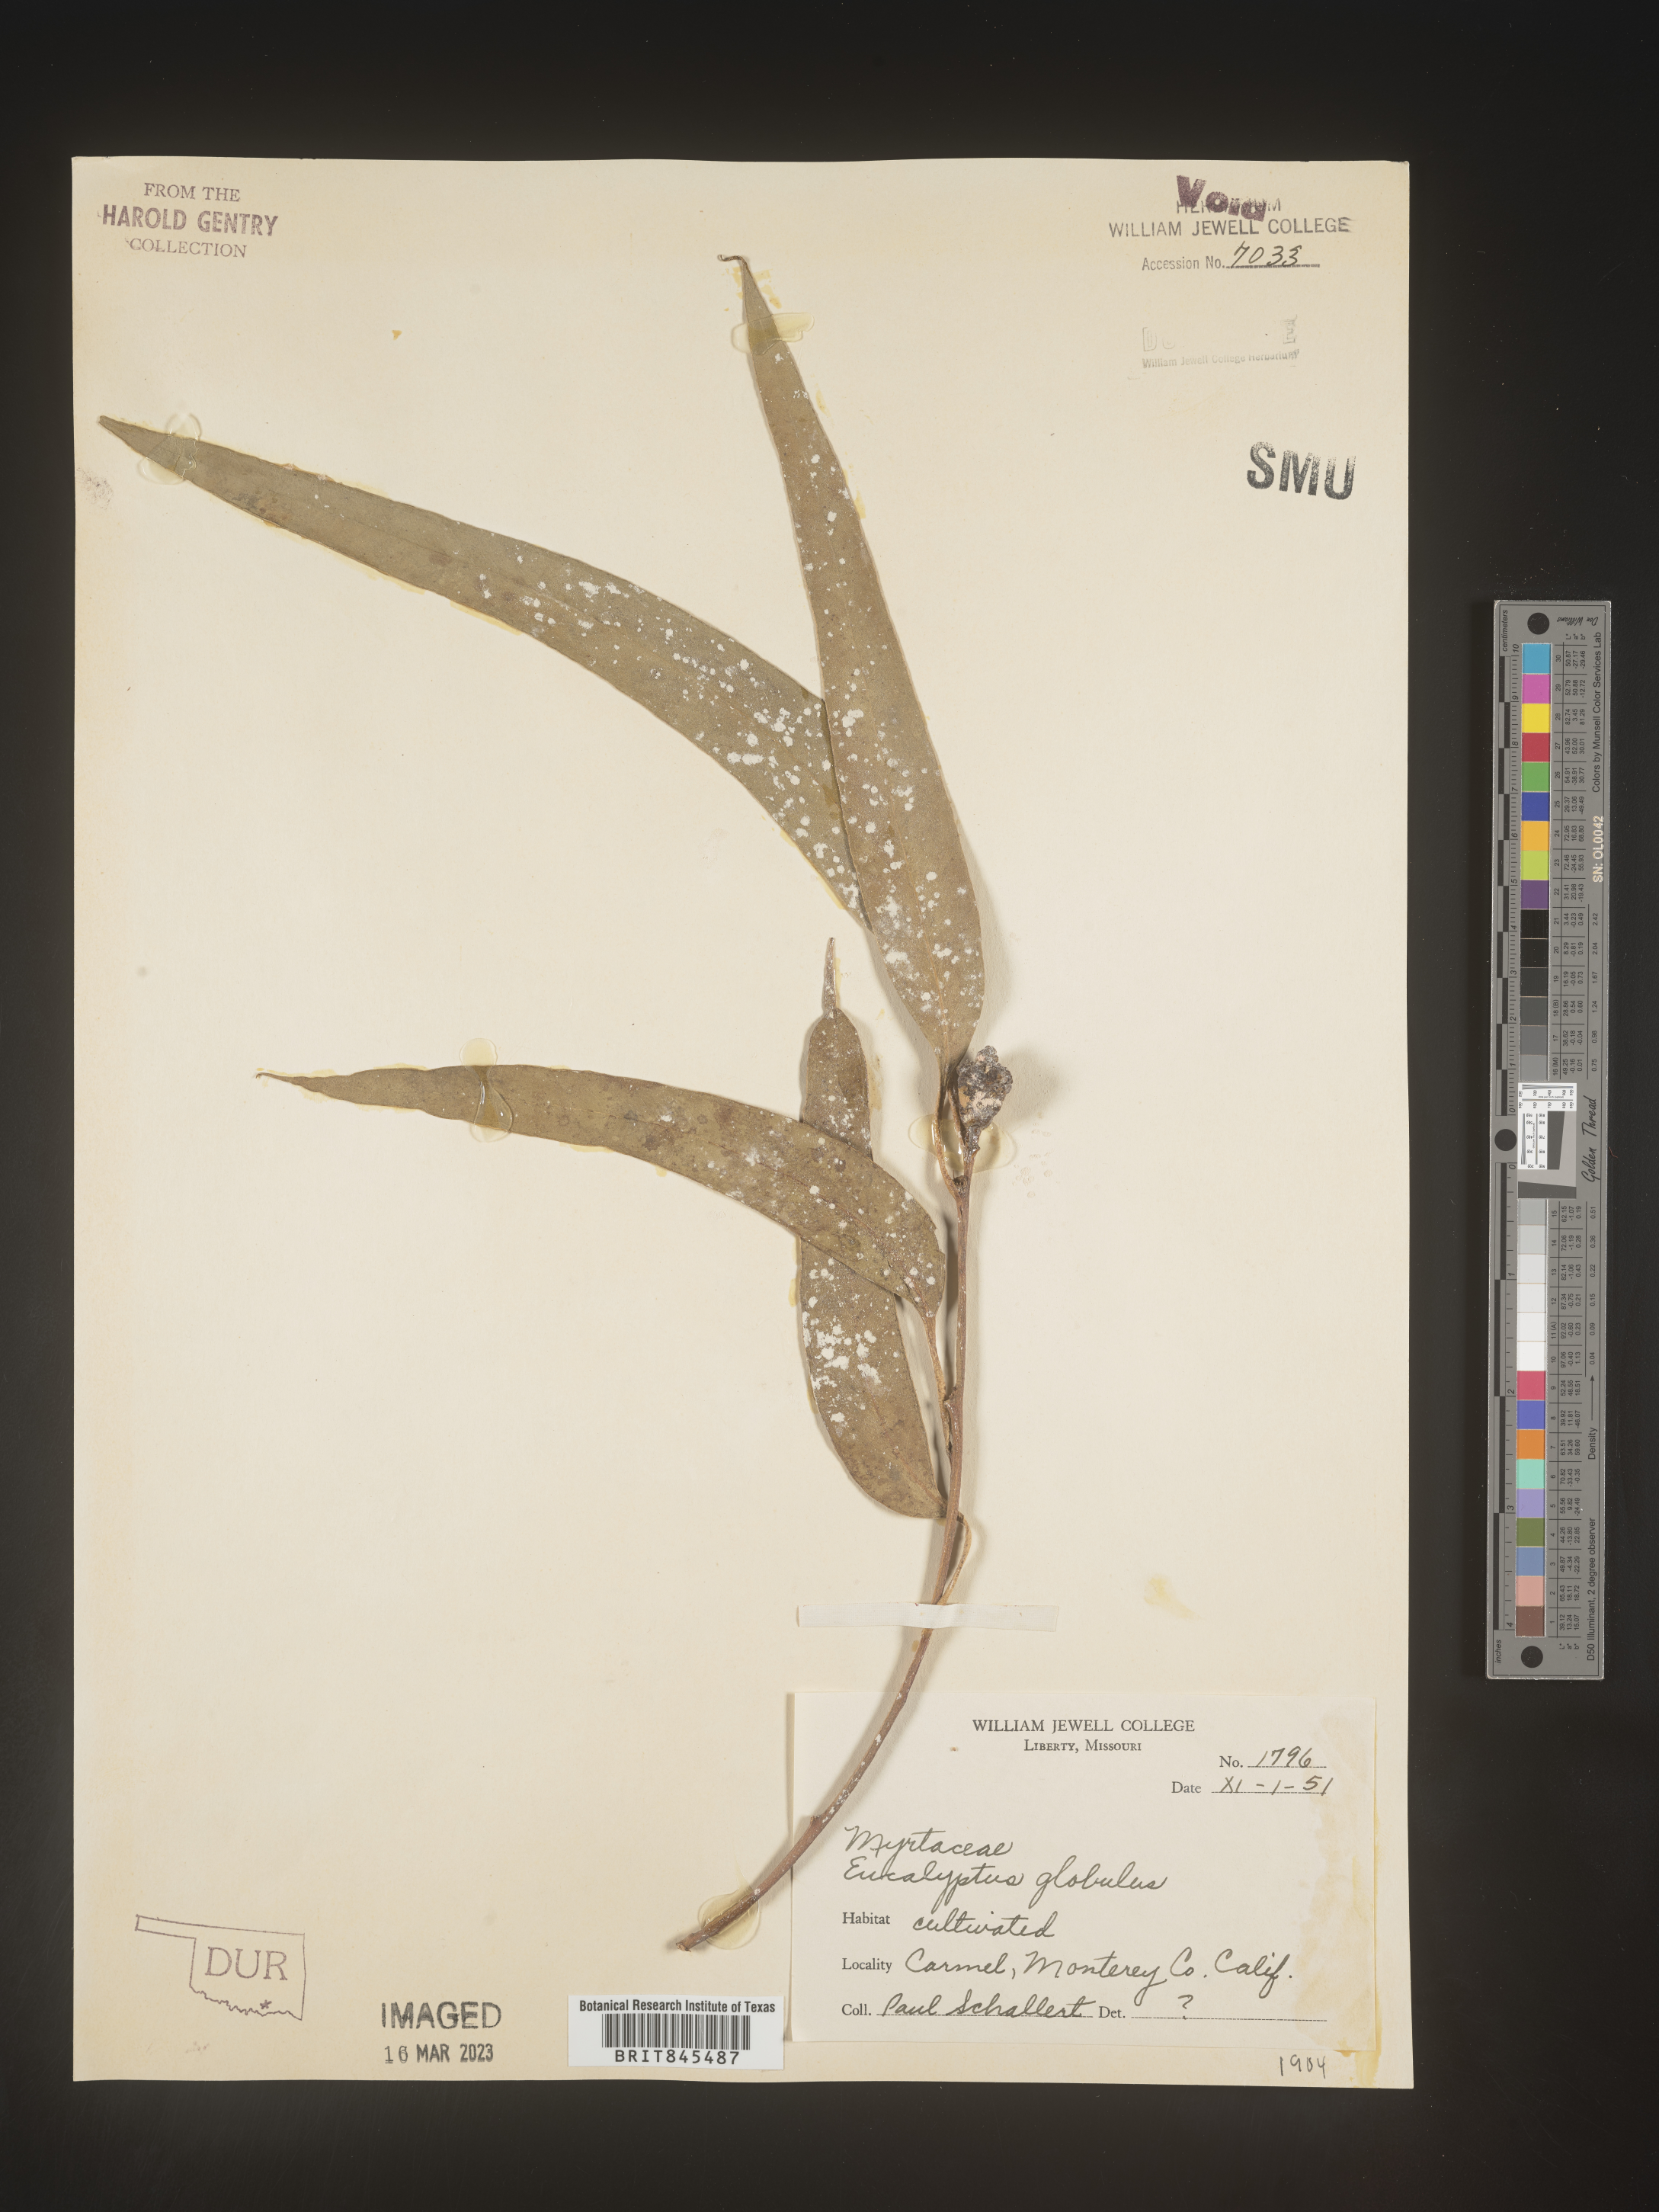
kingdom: Plantae
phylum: Tracheophyta
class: Magnoliopsida
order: Myrtales
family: Myrtaceae
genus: Eucalyptus
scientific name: Eucalyptus
